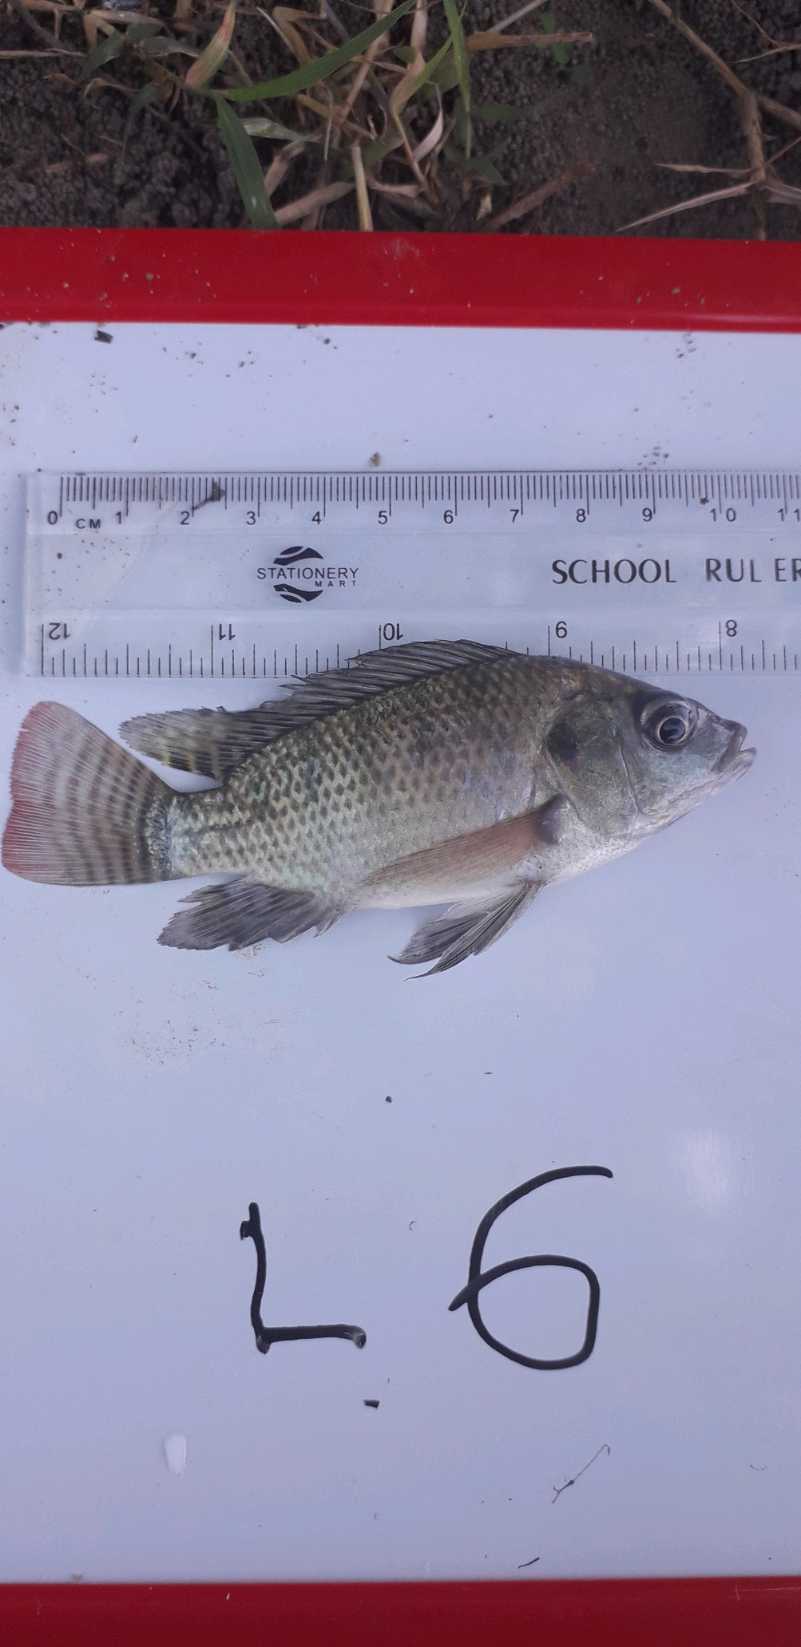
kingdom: Animalia
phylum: Chordata
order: Perciformes
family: Cichlidae
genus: Oreochromis
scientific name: Oreochromis niloticus
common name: Nile tilapia
